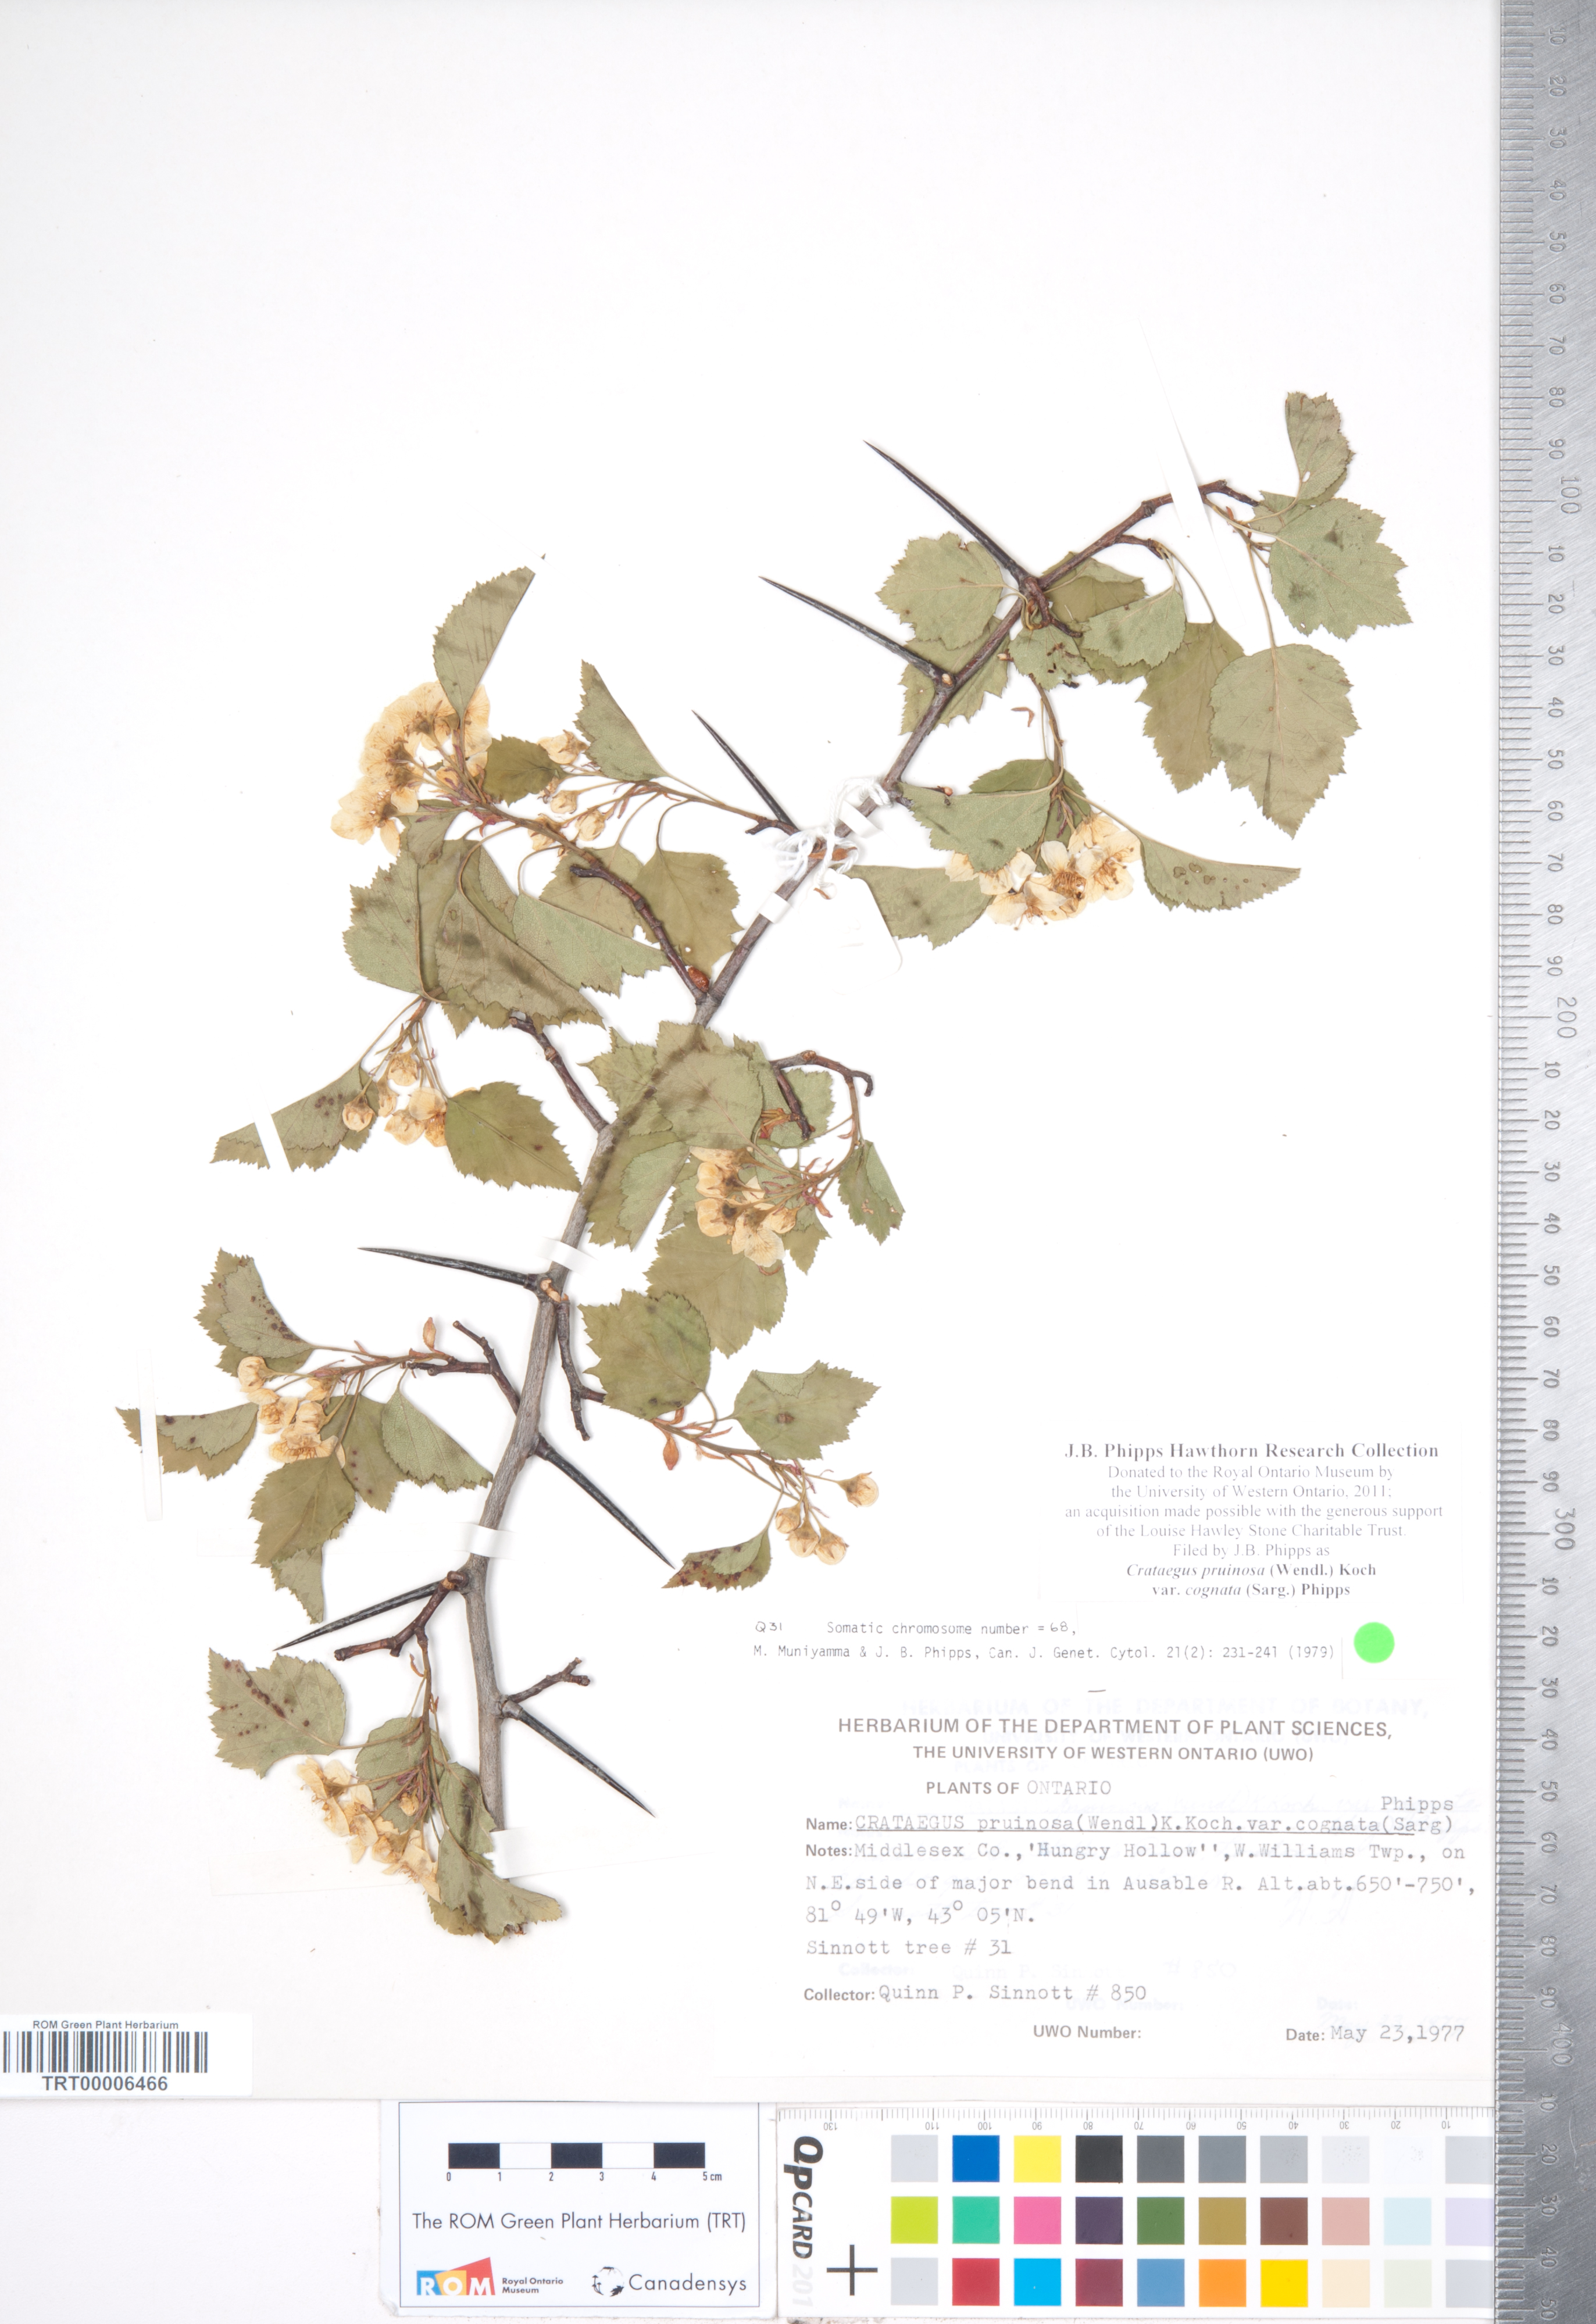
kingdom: Plantae
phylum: Tracheophyta
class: Magnoliopsida
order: Rosales
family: Rosaceae
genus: Crataegus
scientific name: Crataegus
